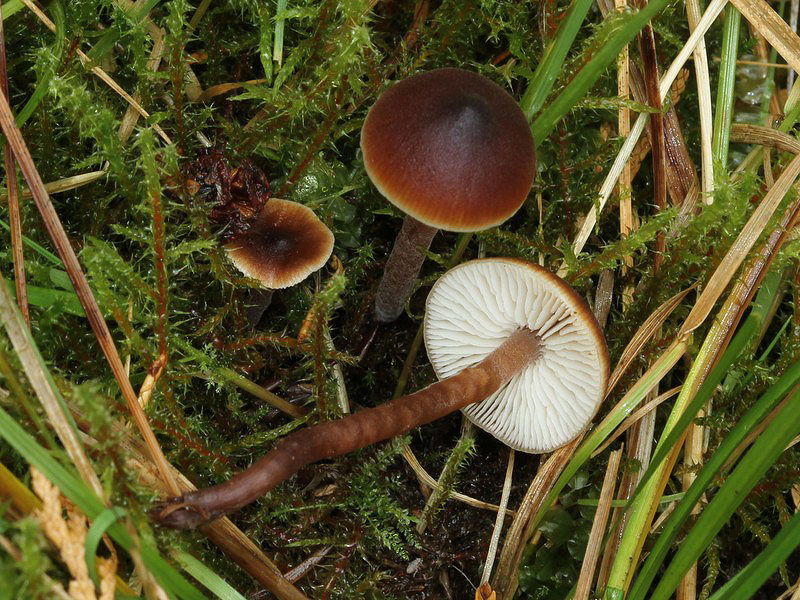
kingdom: Fungi
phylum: Basidiomycota
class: Agaricomycetes
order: Agaricales
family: Macrocystidiaceae
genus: Macrocystidia
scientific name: Macrocystidia cucumis
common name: agurkehat
